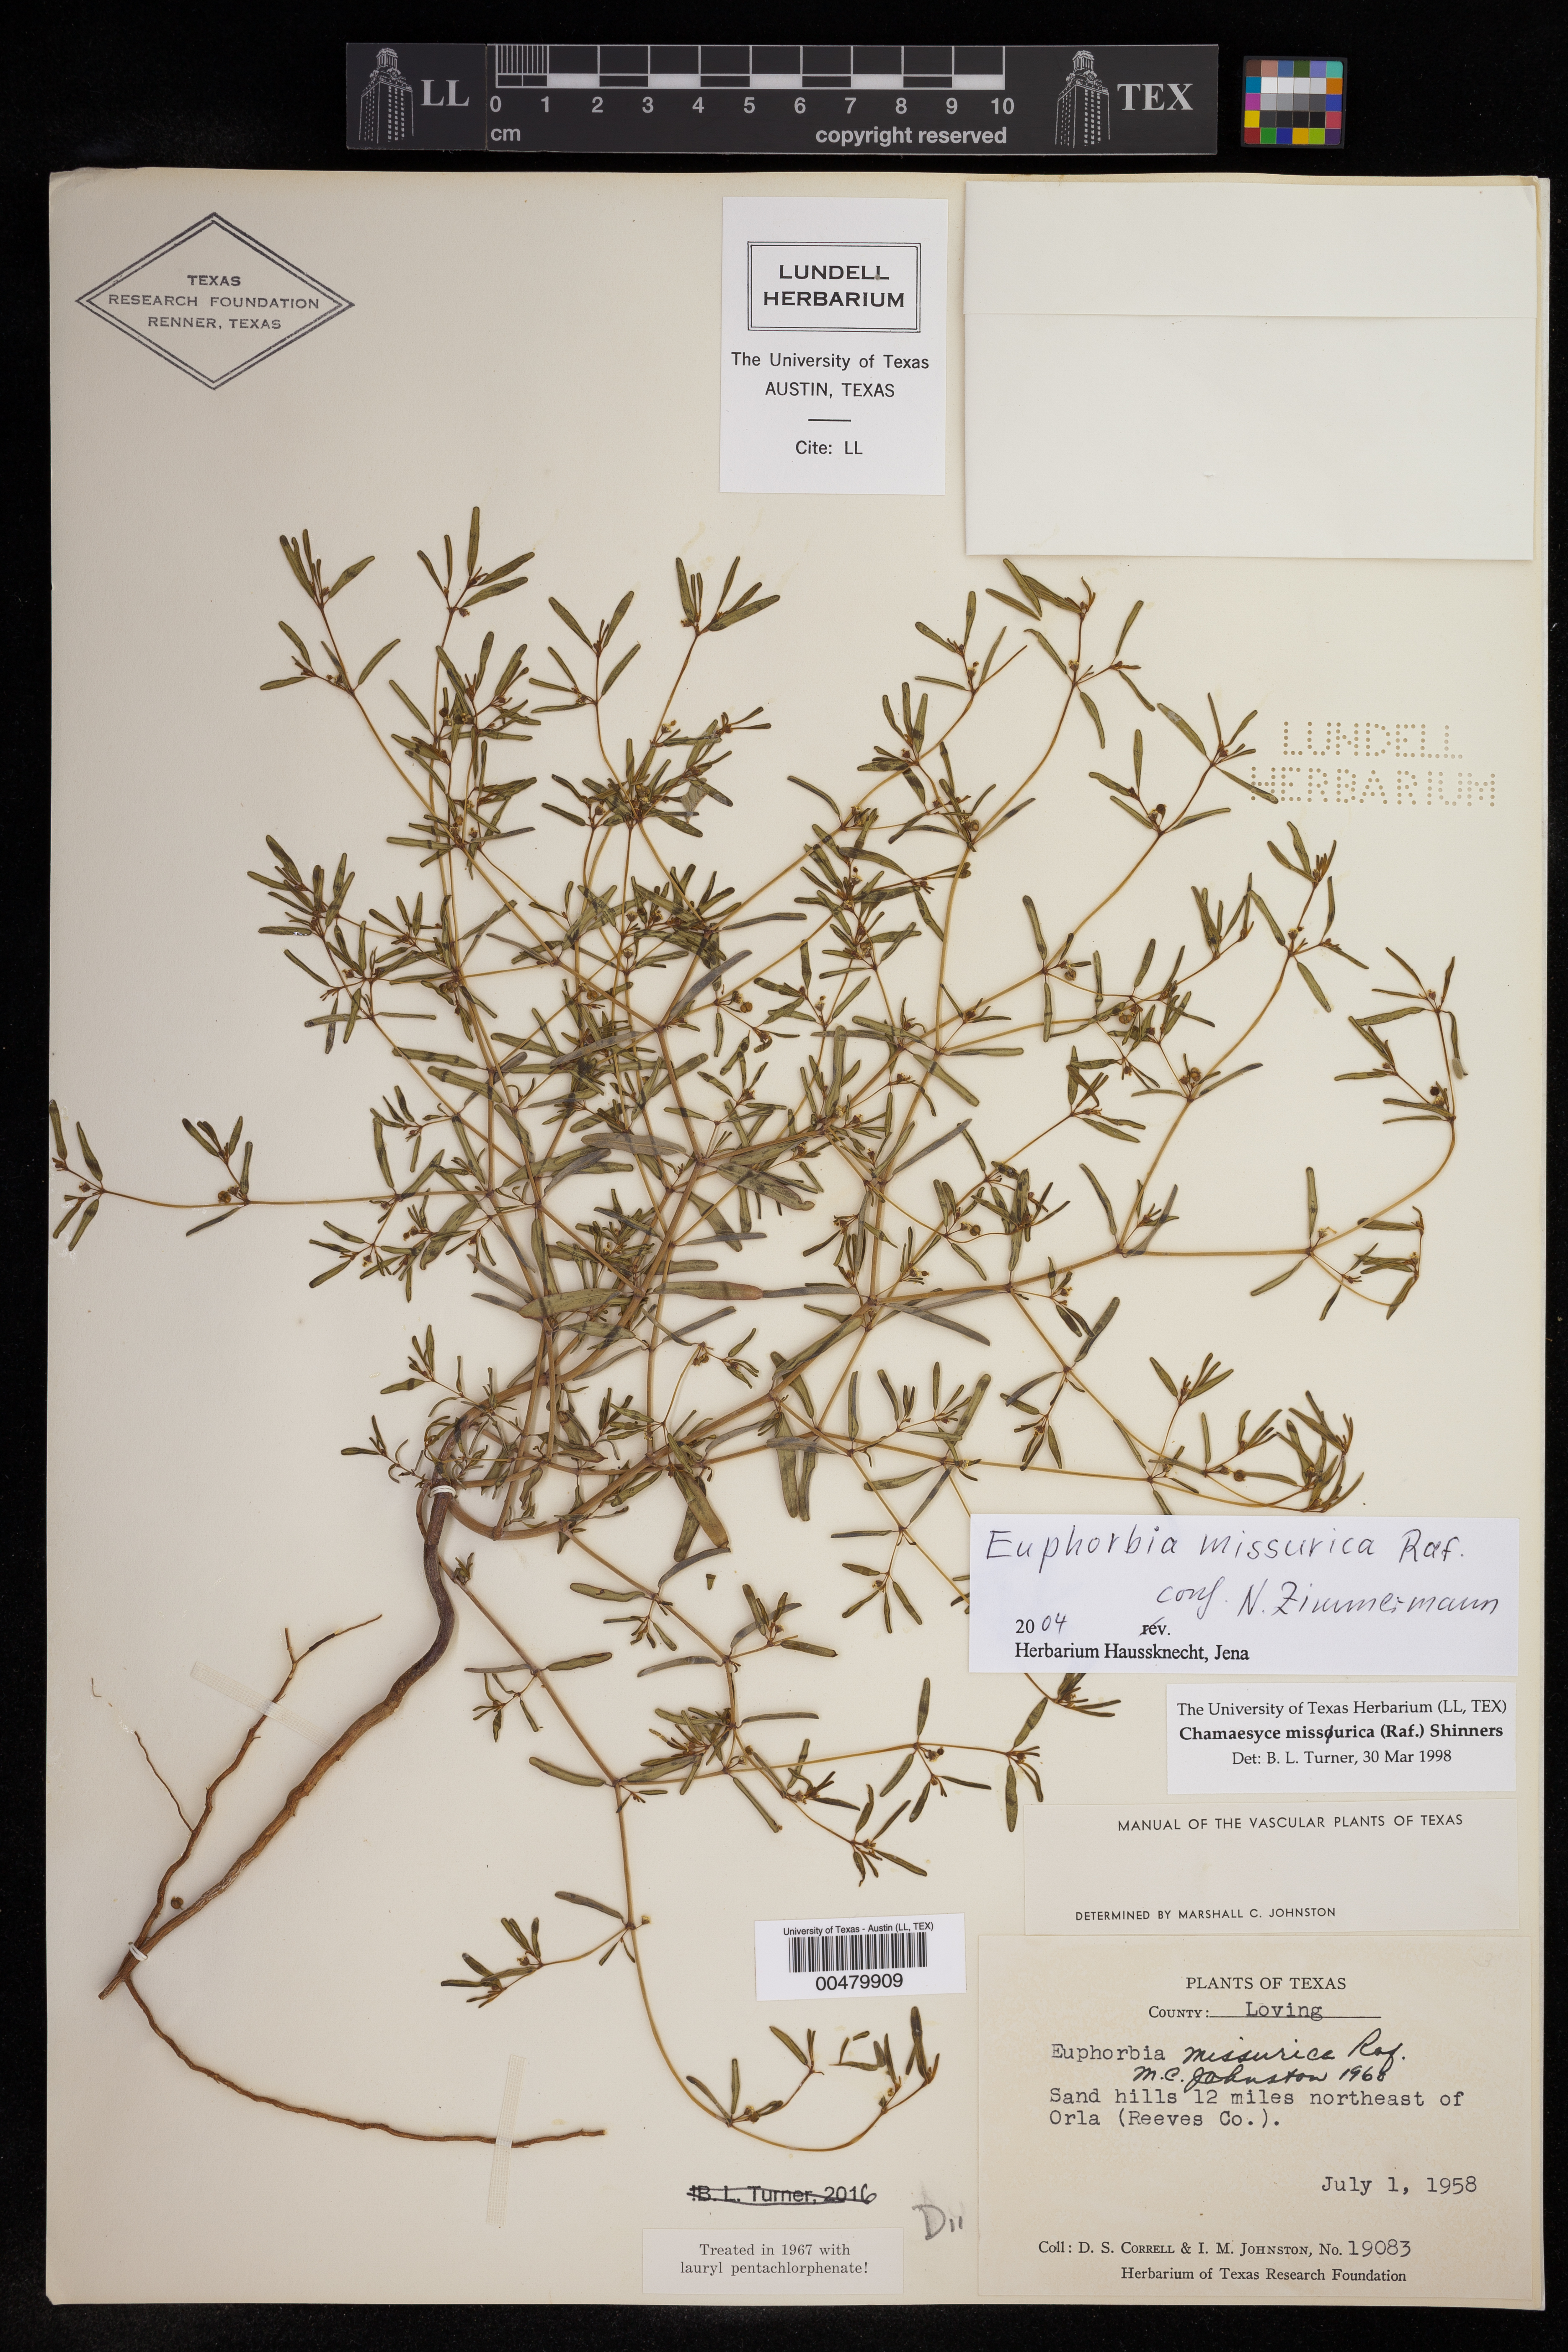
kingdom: Plantae
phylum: Tracheophyta
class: Magnoliopsida
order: Malpighiales
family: Euphorbiaceae
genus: Euphorbia
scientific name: Euphorbia missurica
